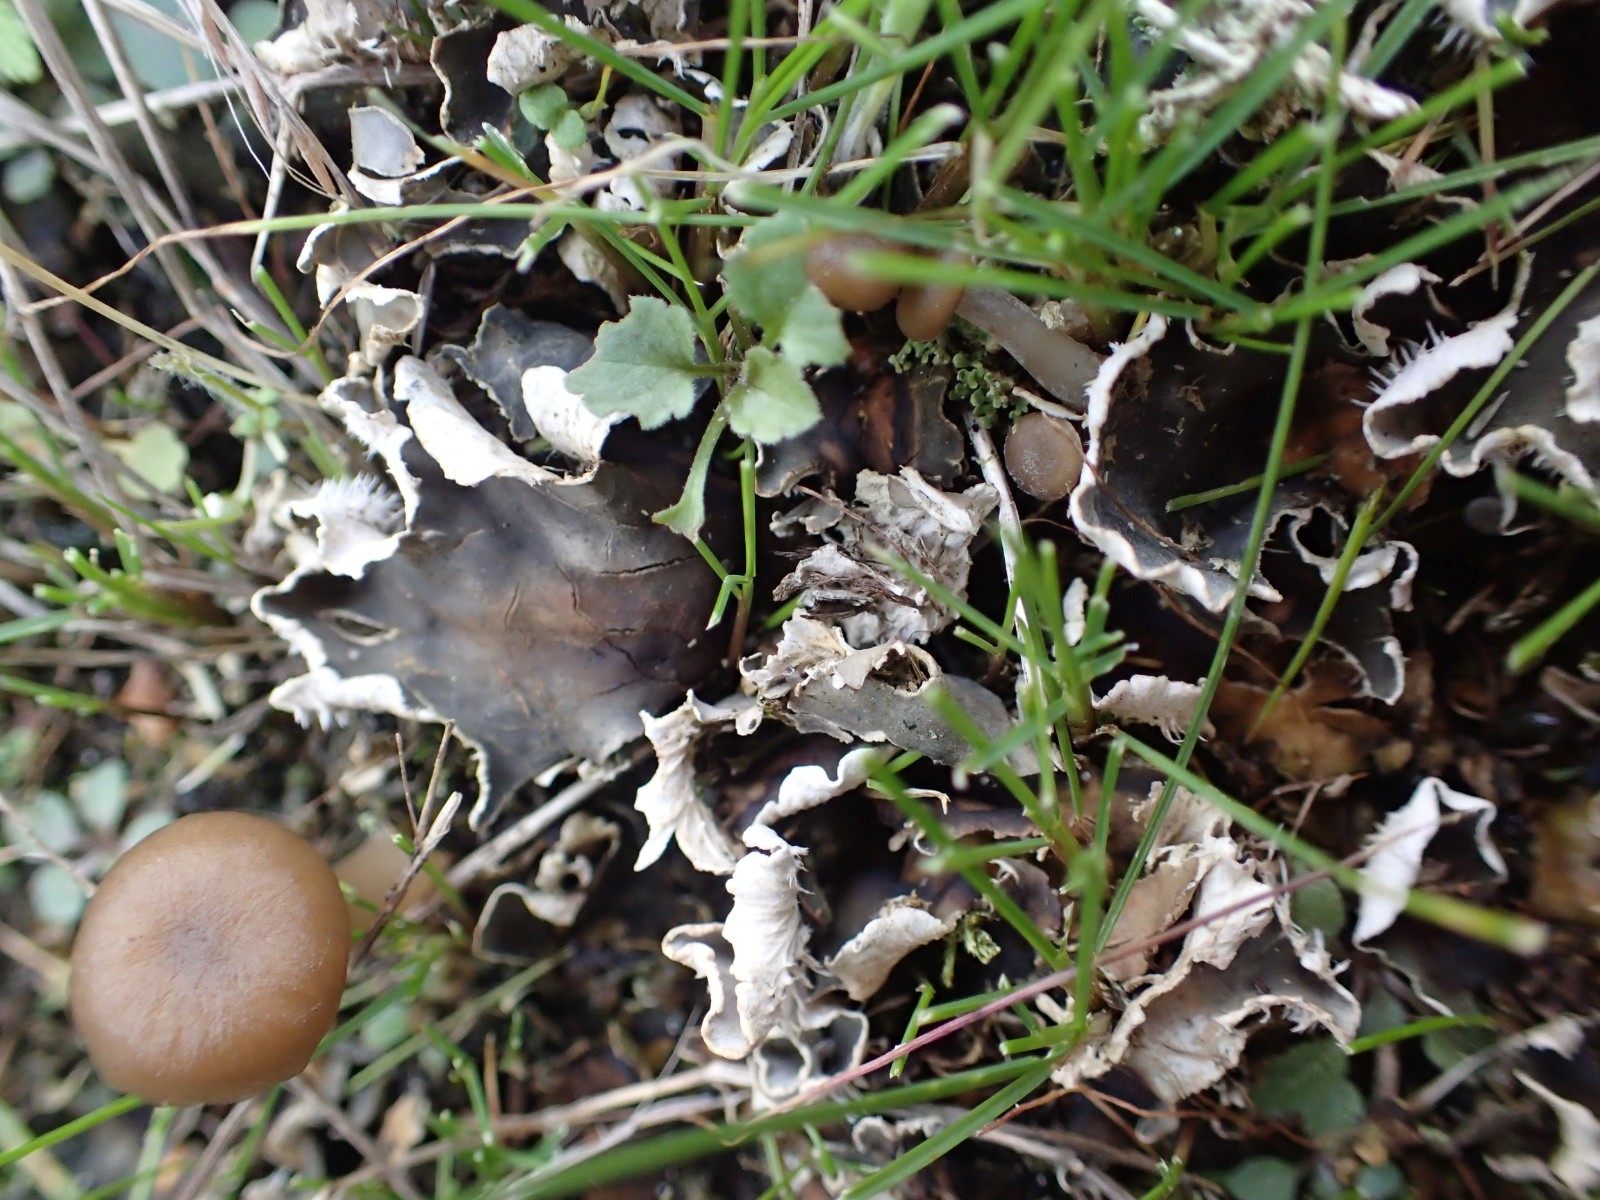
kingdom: Fungi
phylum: Basidiomycota
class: Agaricomycetes
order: Agaricales
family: Tricholomataceae
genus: Gamundia
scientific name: Gamundia xerophila
